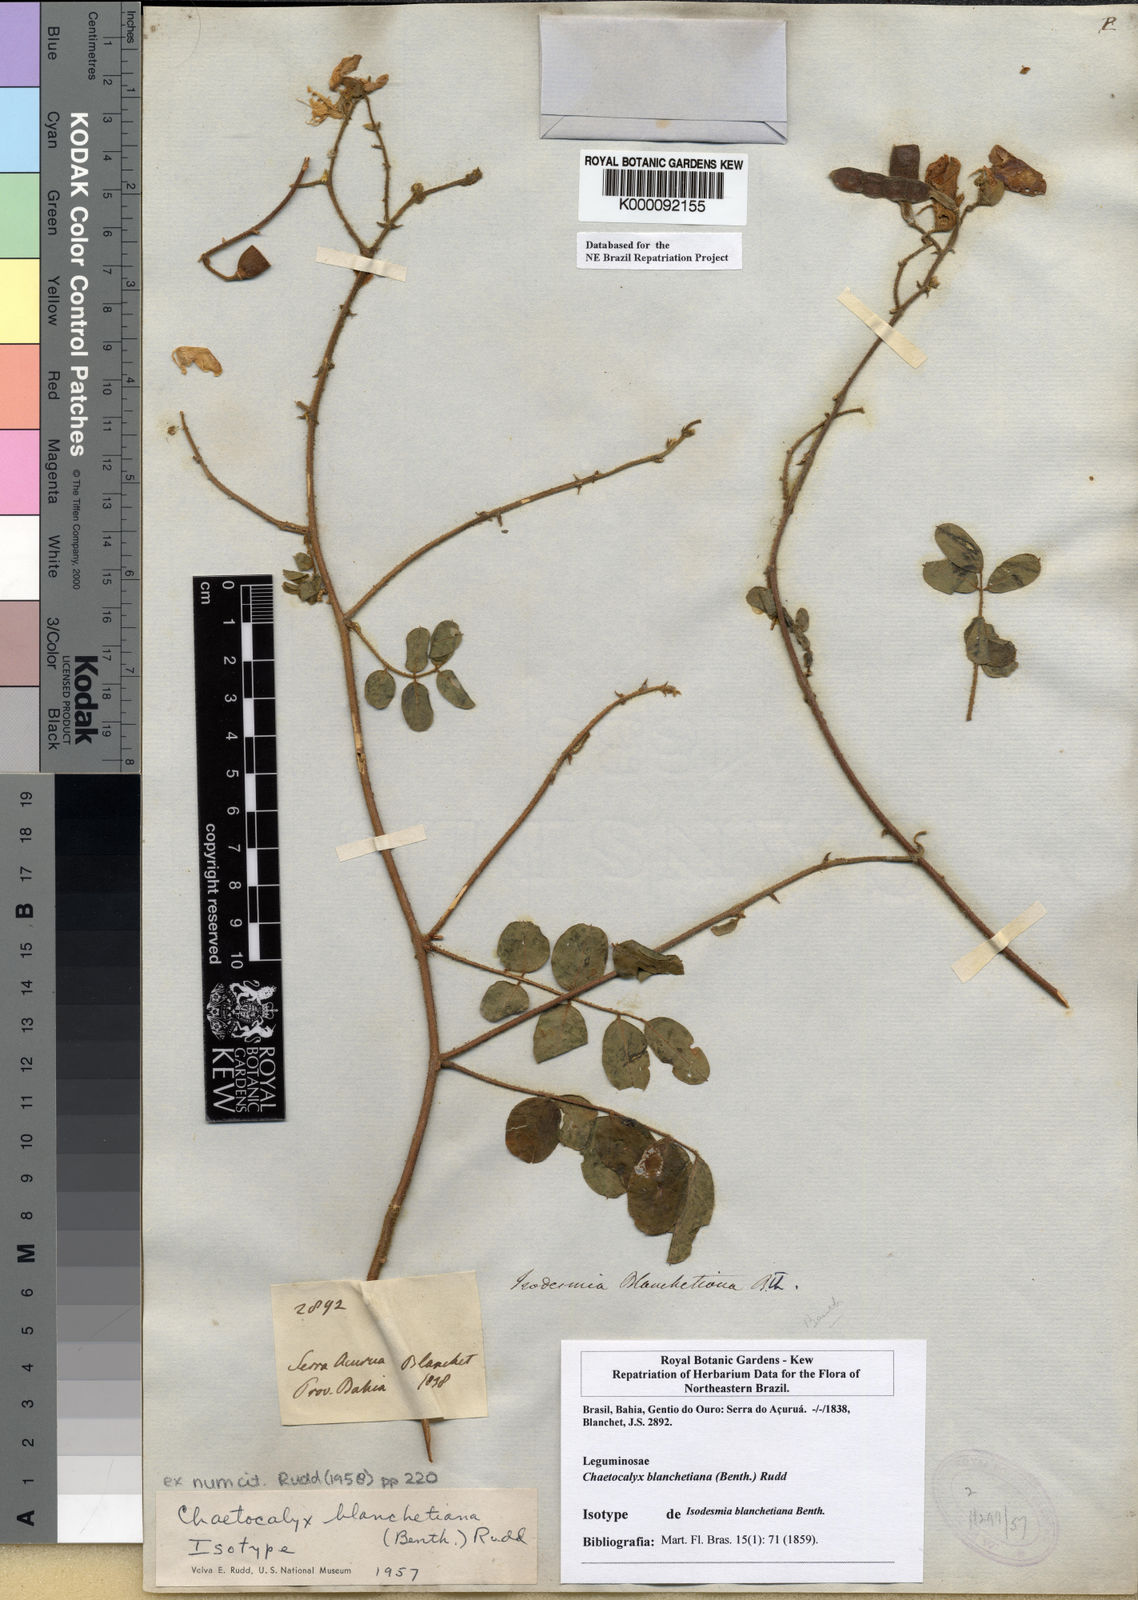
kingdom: Plantae
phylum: Tracheophyta
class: Magnoliopsida
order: Fabales
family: Fabaceae
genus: Nissolia
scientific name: Nissolia blanchetiana
